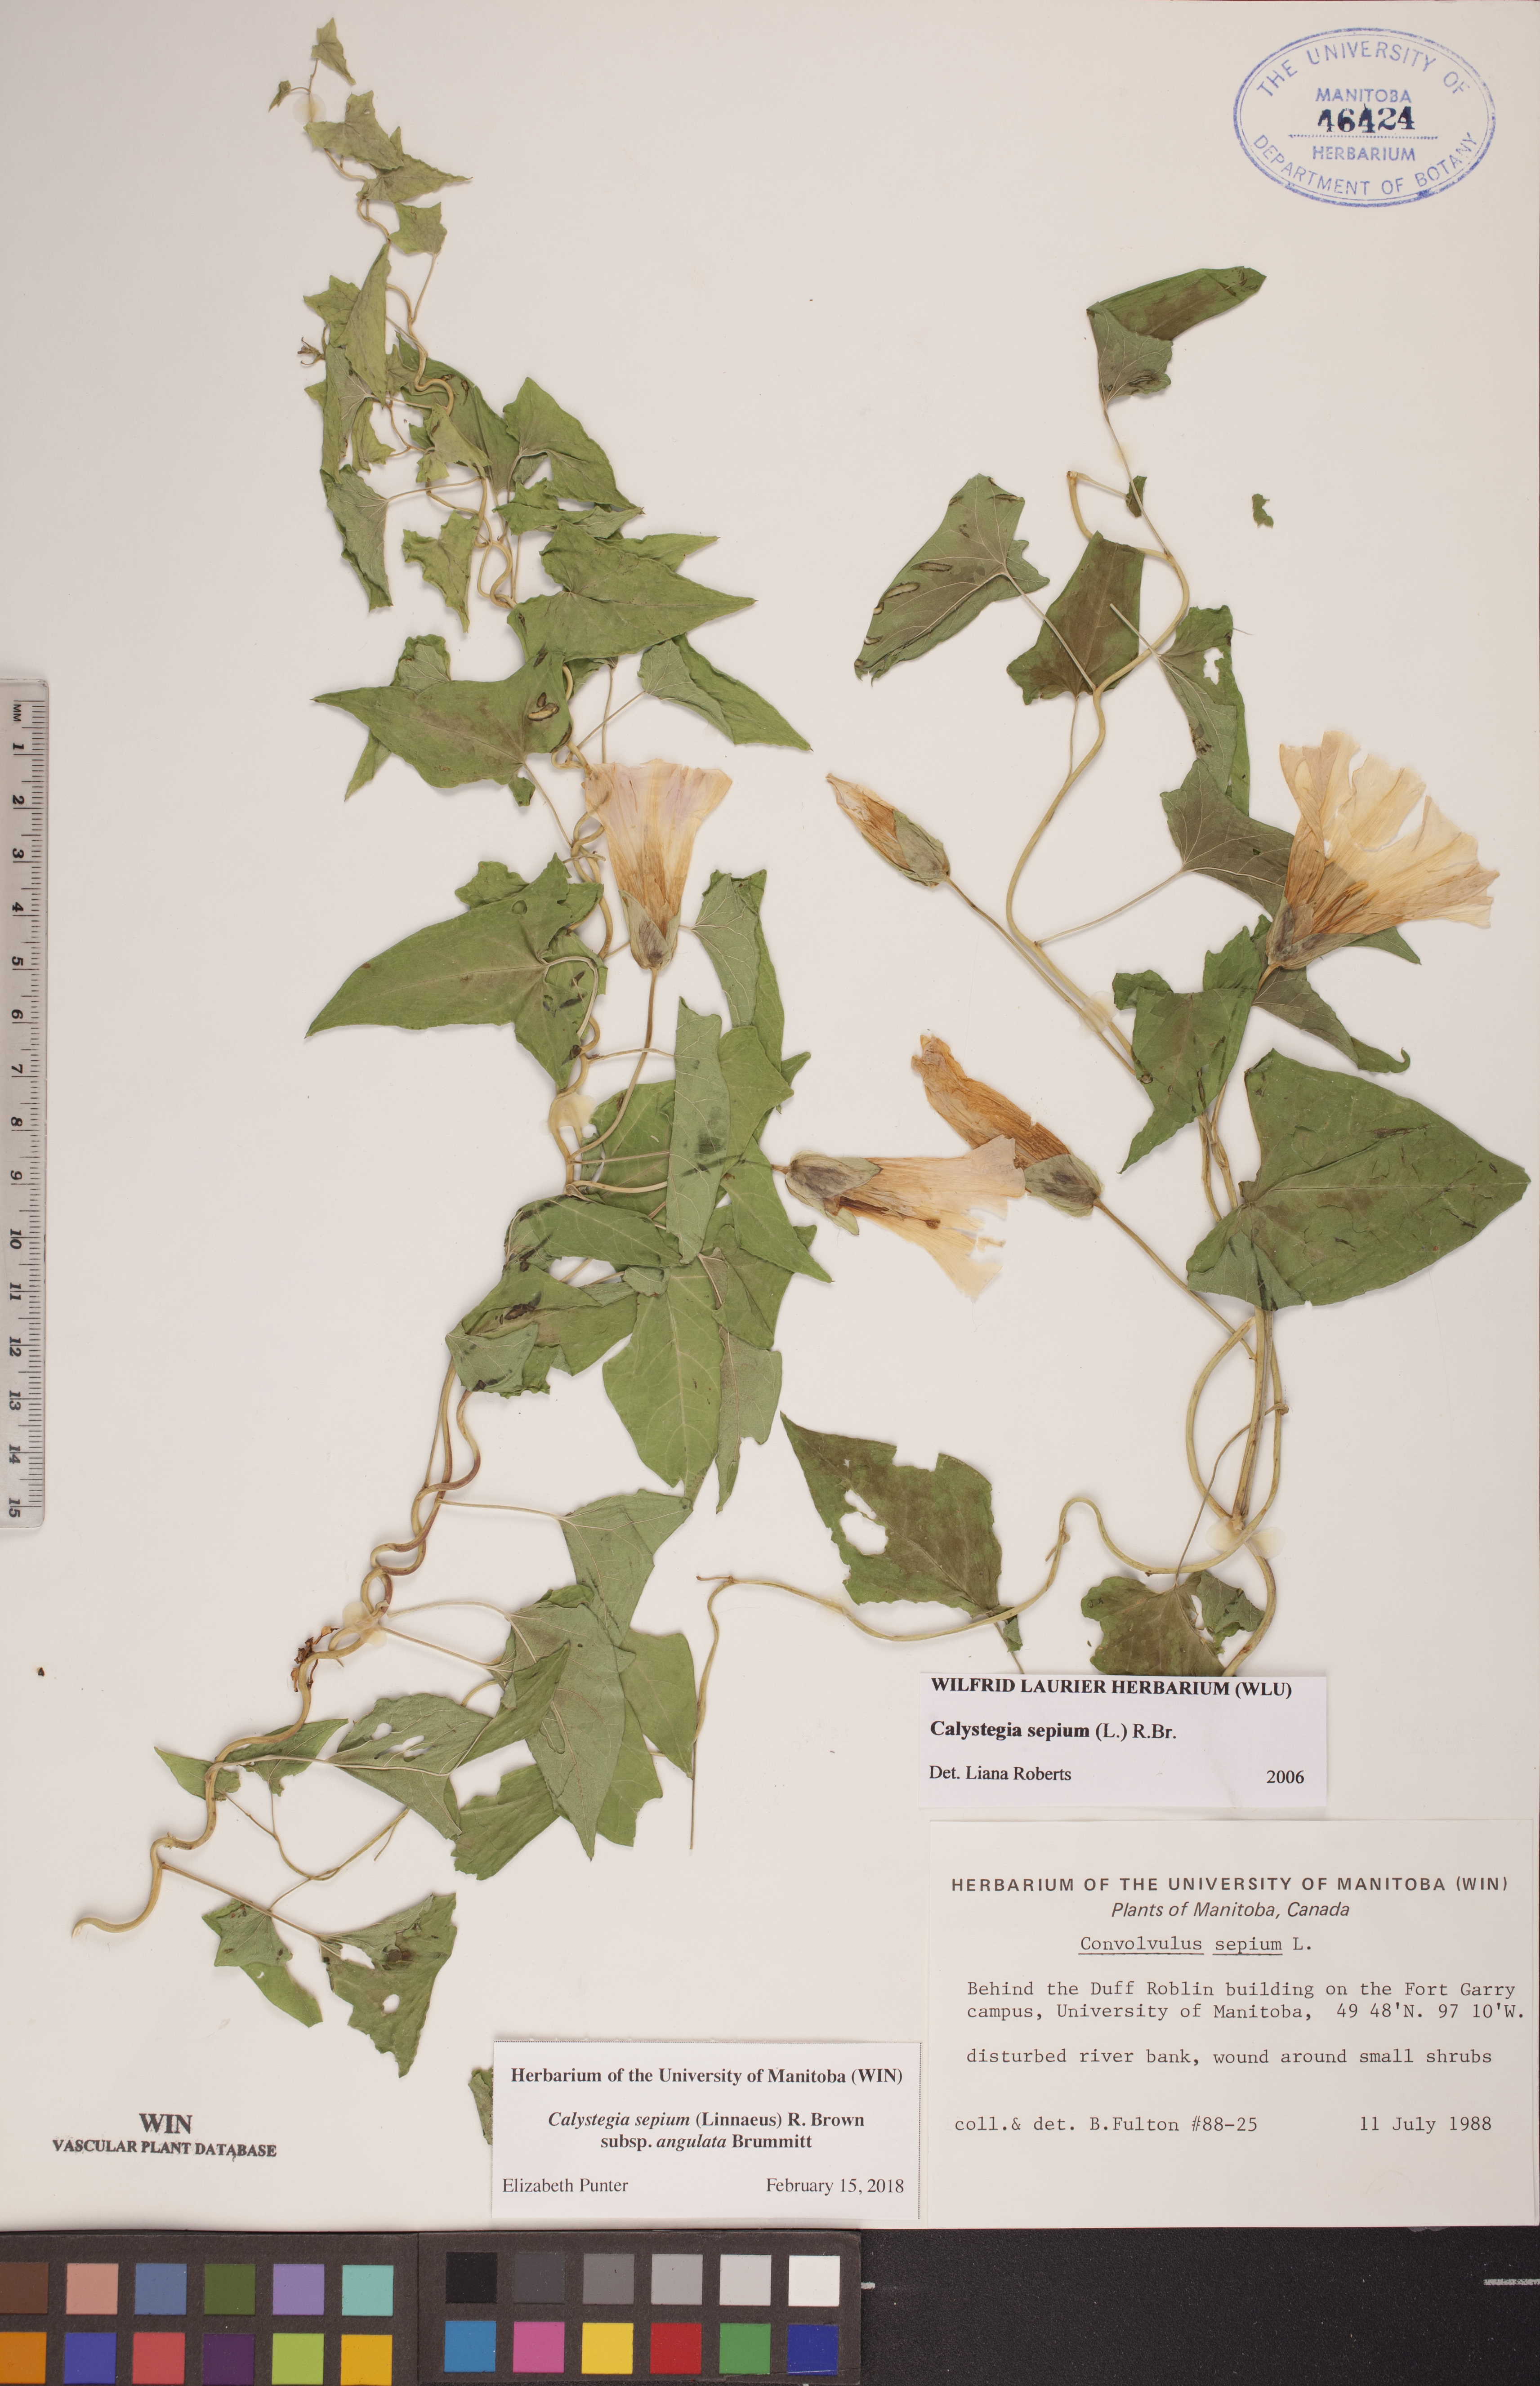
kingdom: Plantae
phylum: Tracheophyta
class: Magnoliopsida
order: Solanales
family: Convolvulaceae
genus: Calystegia
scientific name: Calystegia sepium
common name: Hedge bindweed
